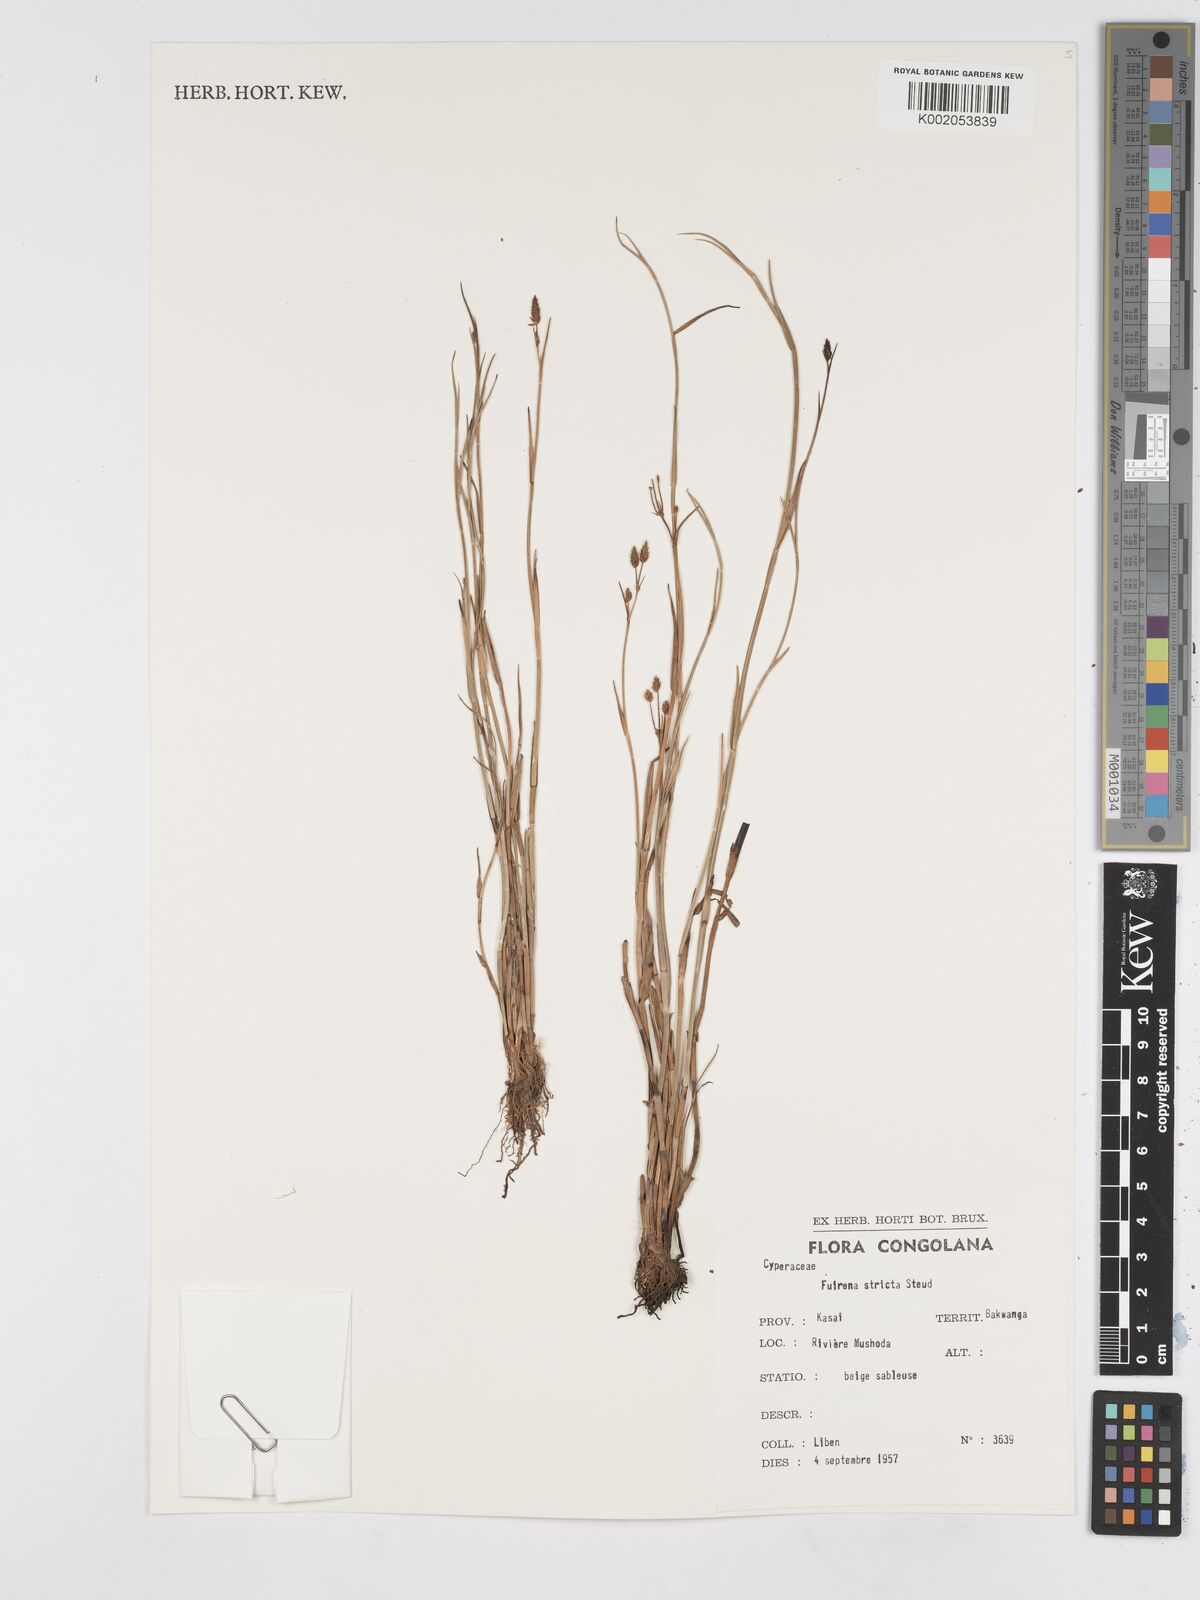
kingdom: Plantae
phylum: Tracheophyta
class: Liliopsida
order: Poales
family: Cyperaceae
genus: Fuirena
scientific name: Fuirena stricta
